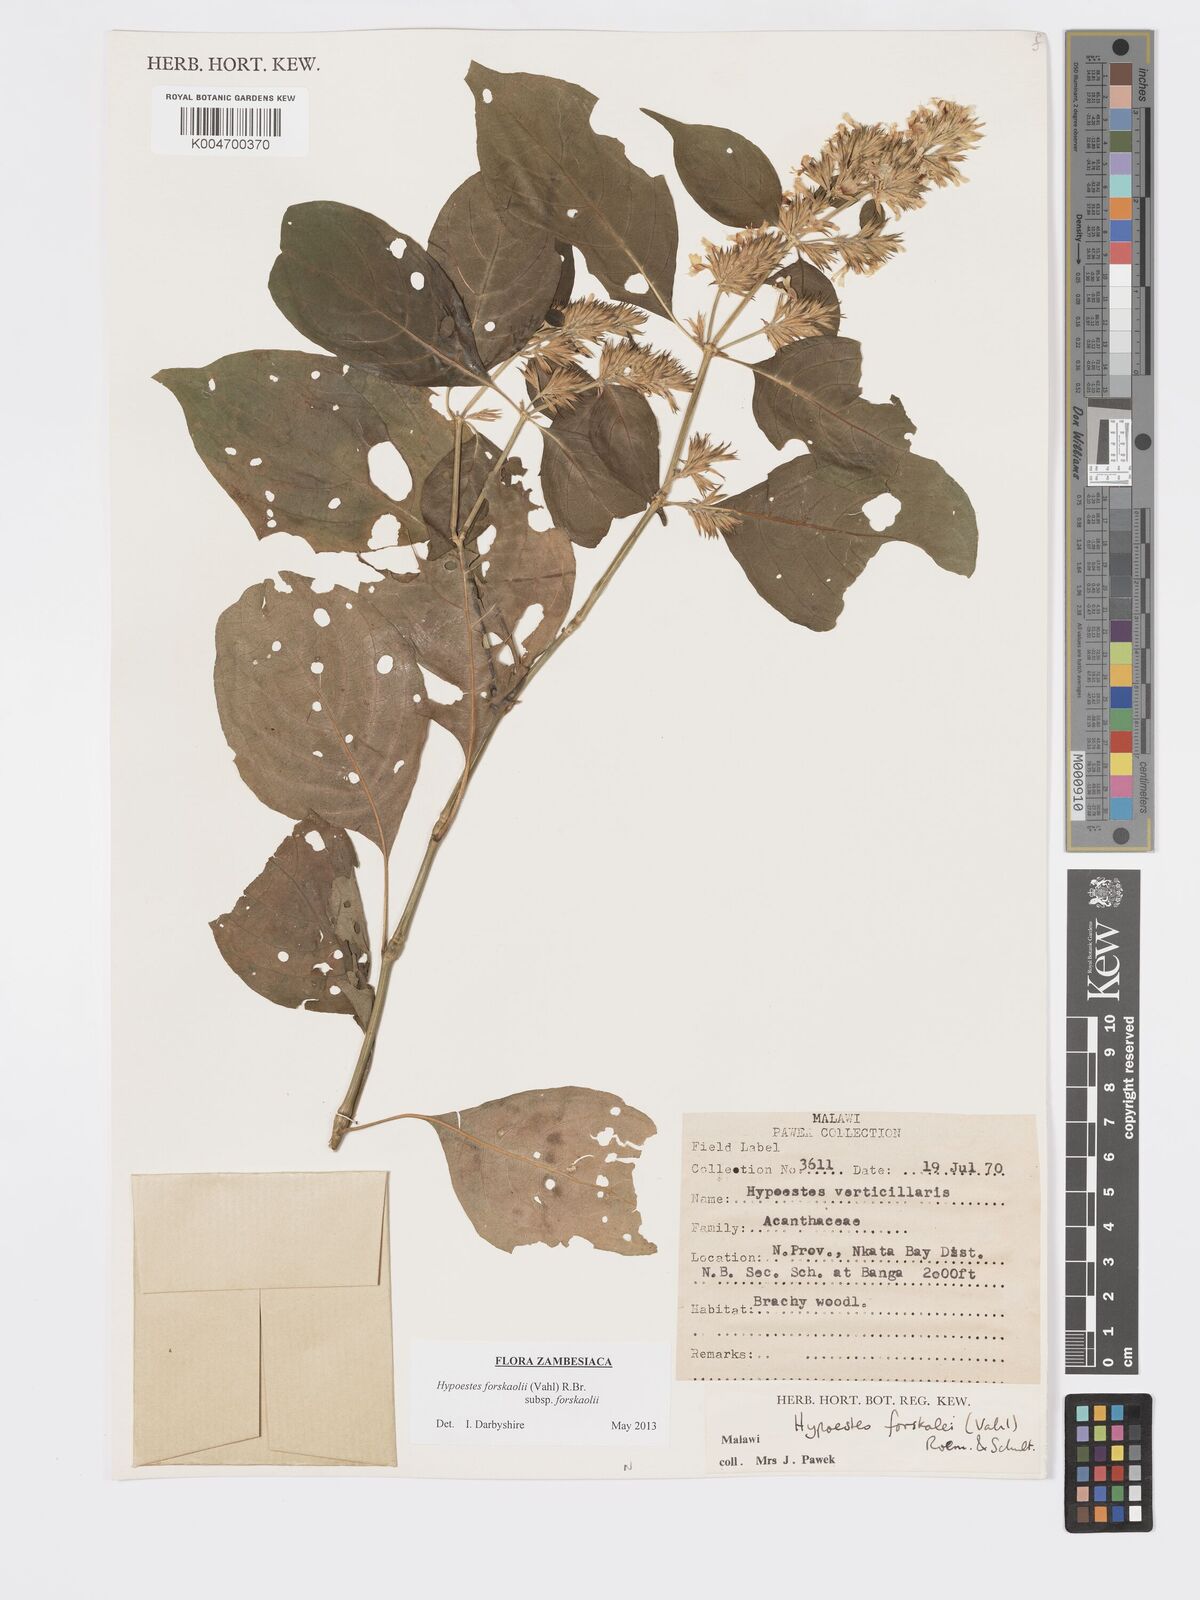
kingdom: Plantae
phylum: Tracheophyta
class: Magnoliopsida
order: Lamiales
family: Acanthaceae
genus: Hypoestes
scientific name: Hypoestes forskaolii
